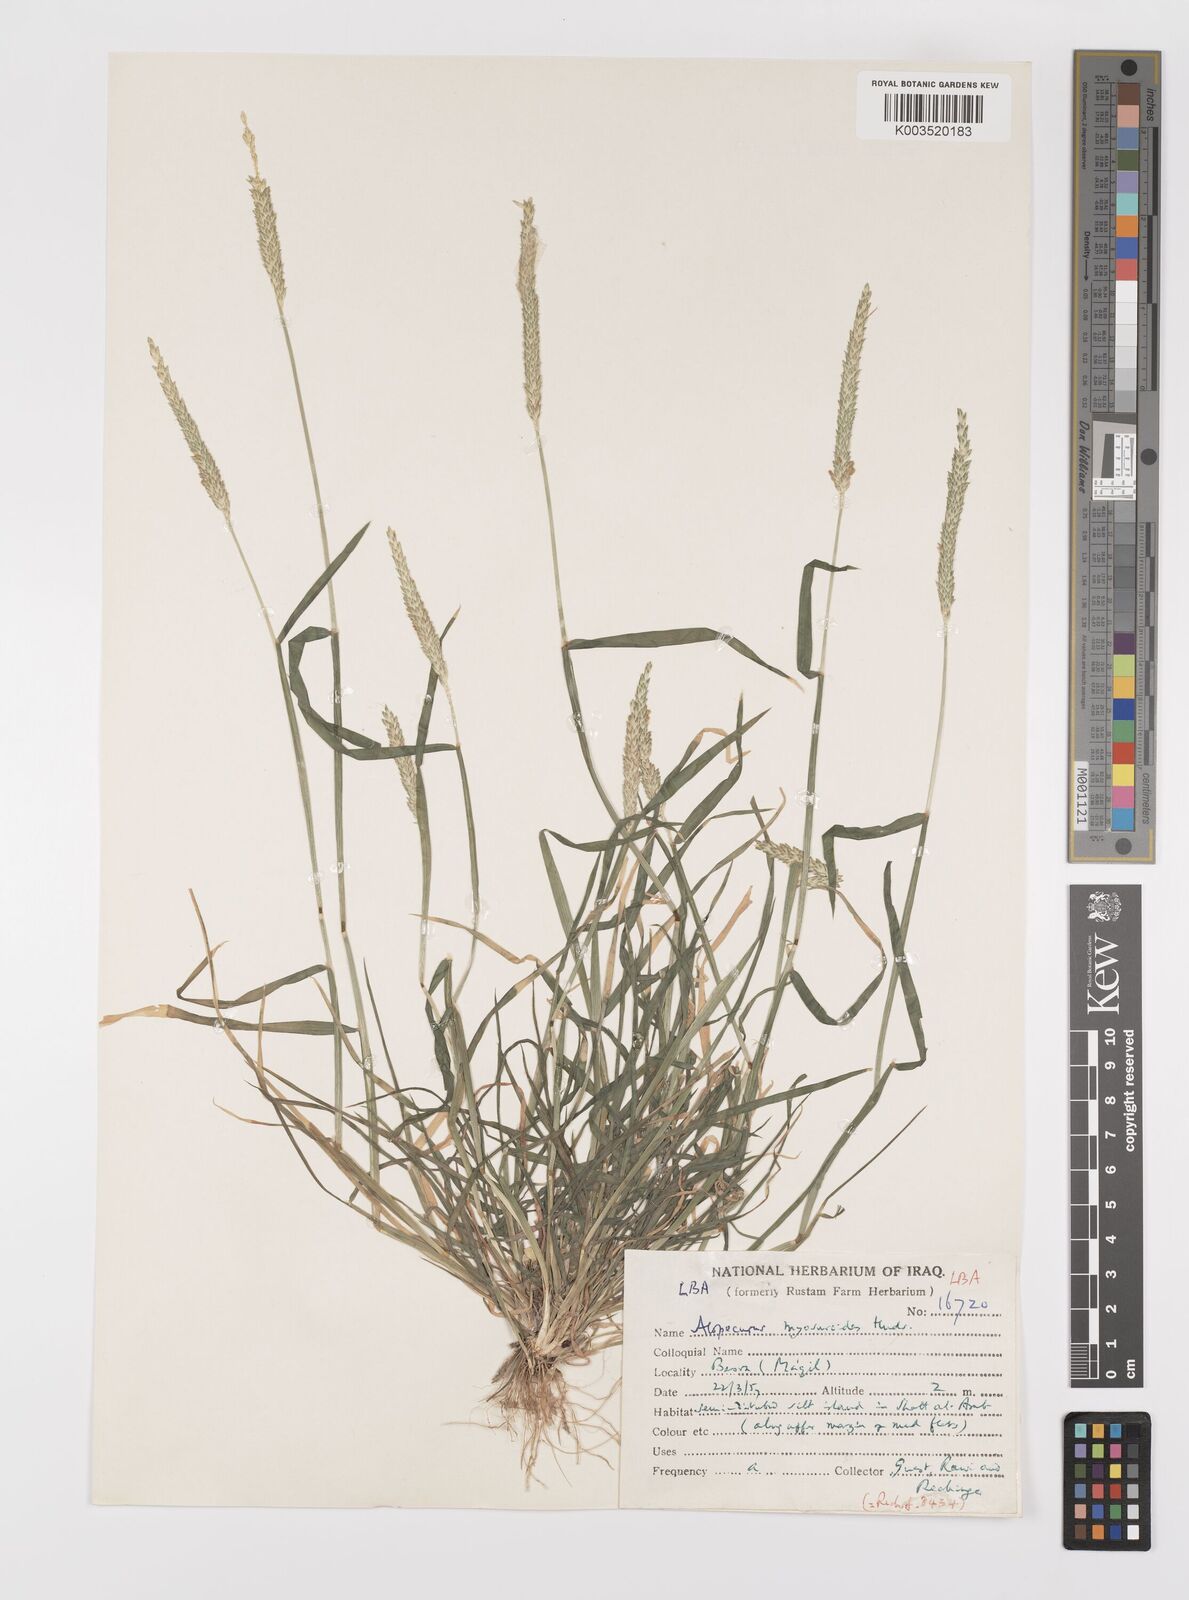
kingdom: Plantae
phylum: Tracheophyta
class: Liliopsida
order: Poales
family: Poaceae
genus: Alopecurus
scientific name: Alopecurus myosuroides
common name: Black-grass
